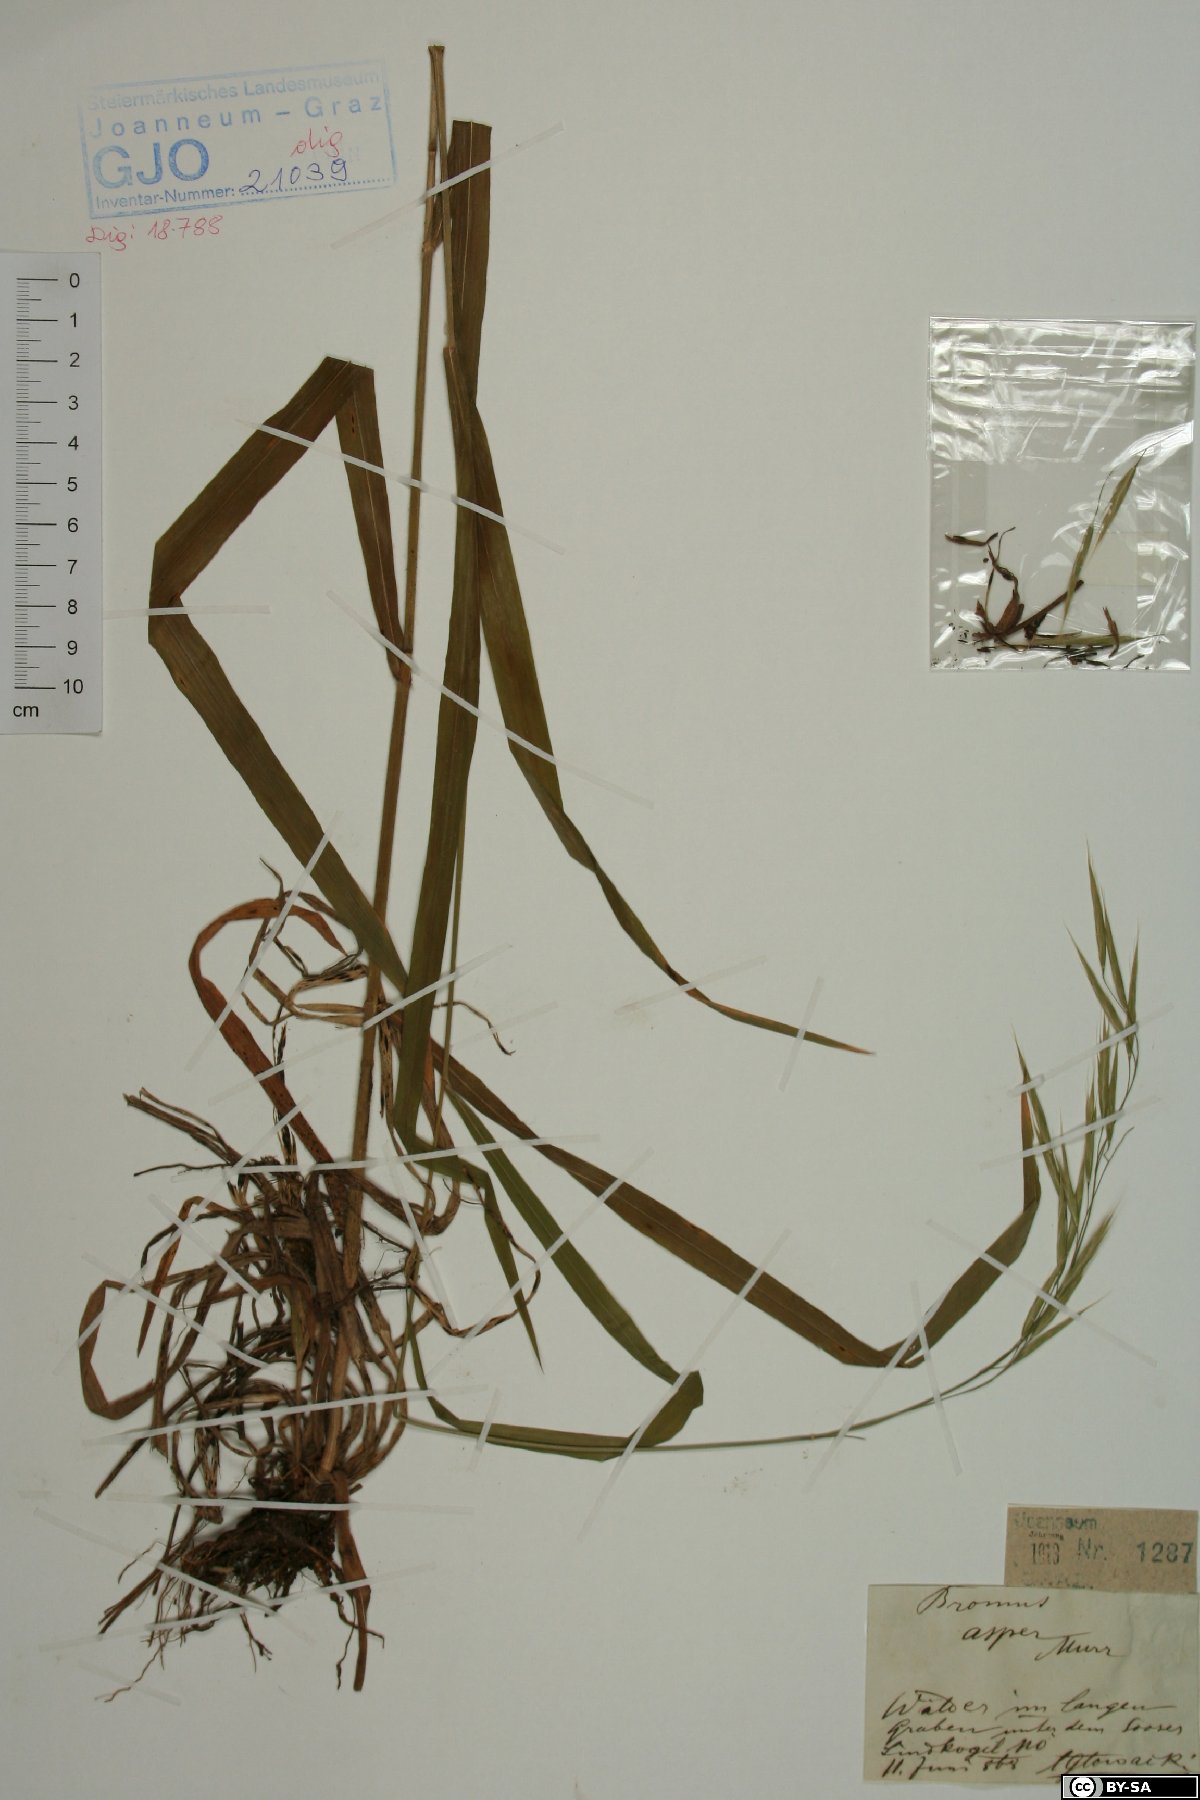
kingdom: Plantae
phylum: Tracheophyta
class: Liliopsida
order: Poales
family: Poaceae
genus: Bromus
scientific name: Bromus ramosus
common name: Hairy brome
